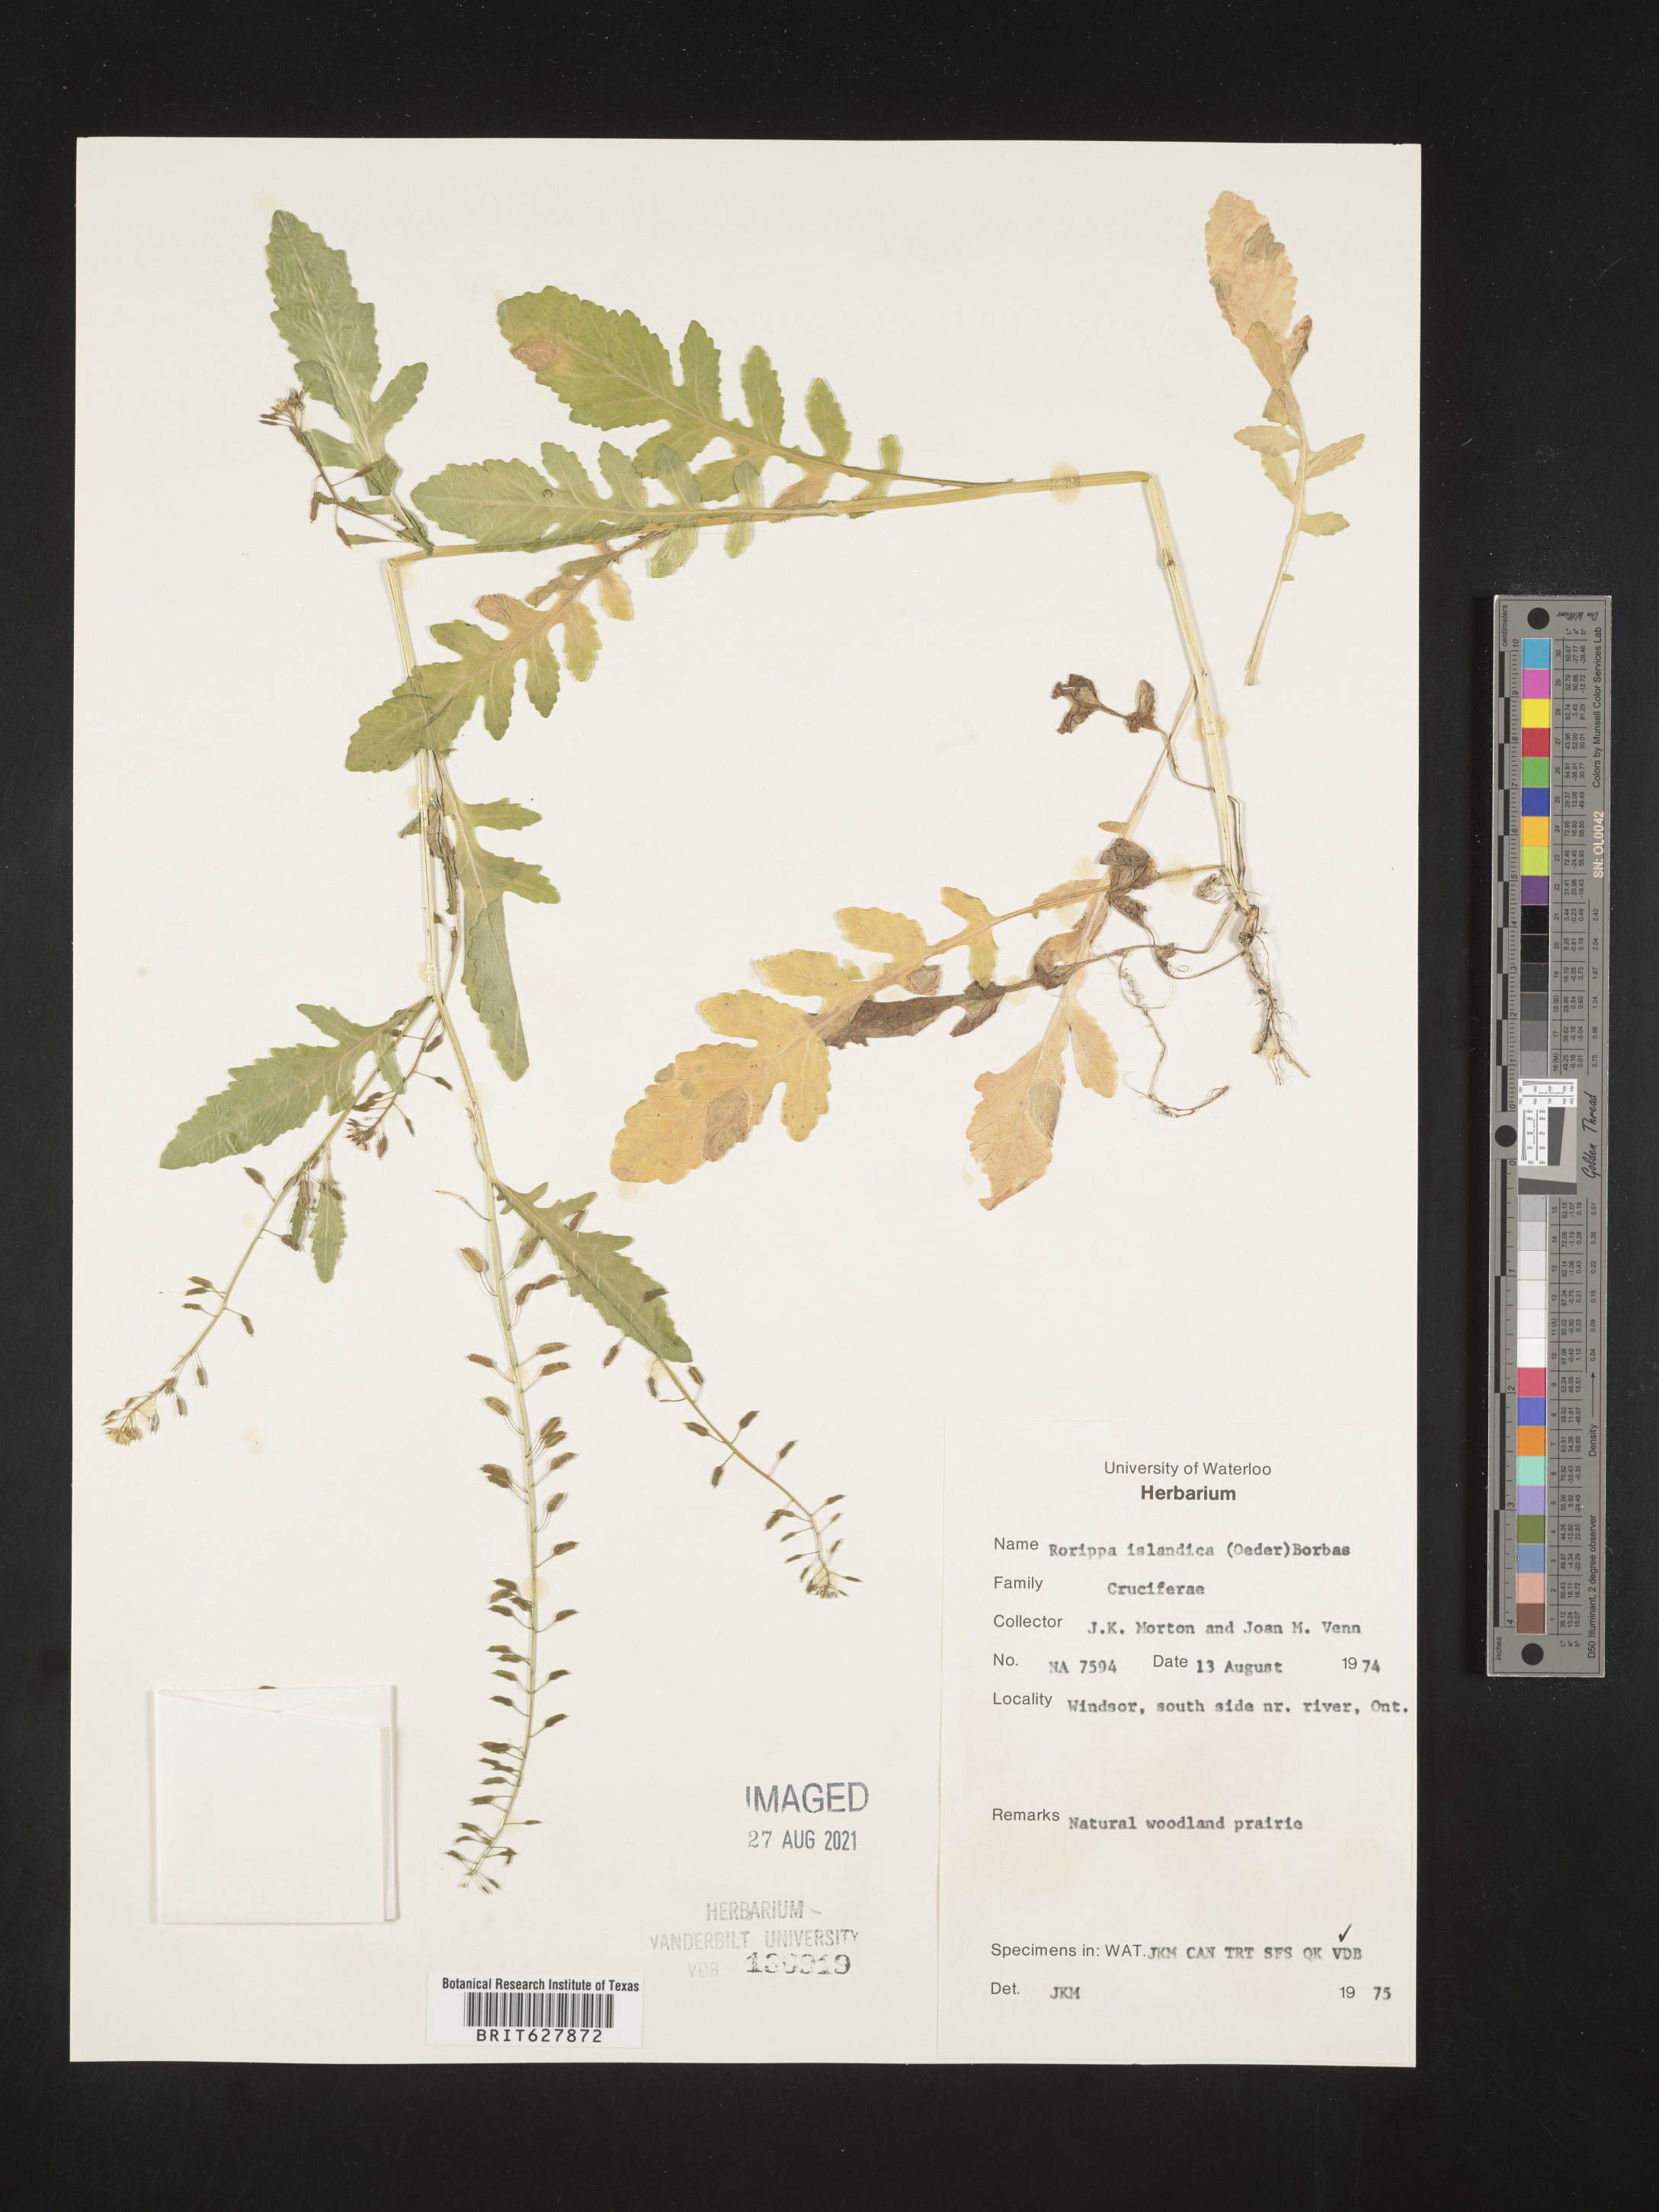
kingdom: Plantae
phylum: Tracheophyta
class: Magnoliopsida
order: Brassicales
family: Brassicaceae
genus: Rorippa
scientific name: Rorippa islandica
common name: Marsh cress
